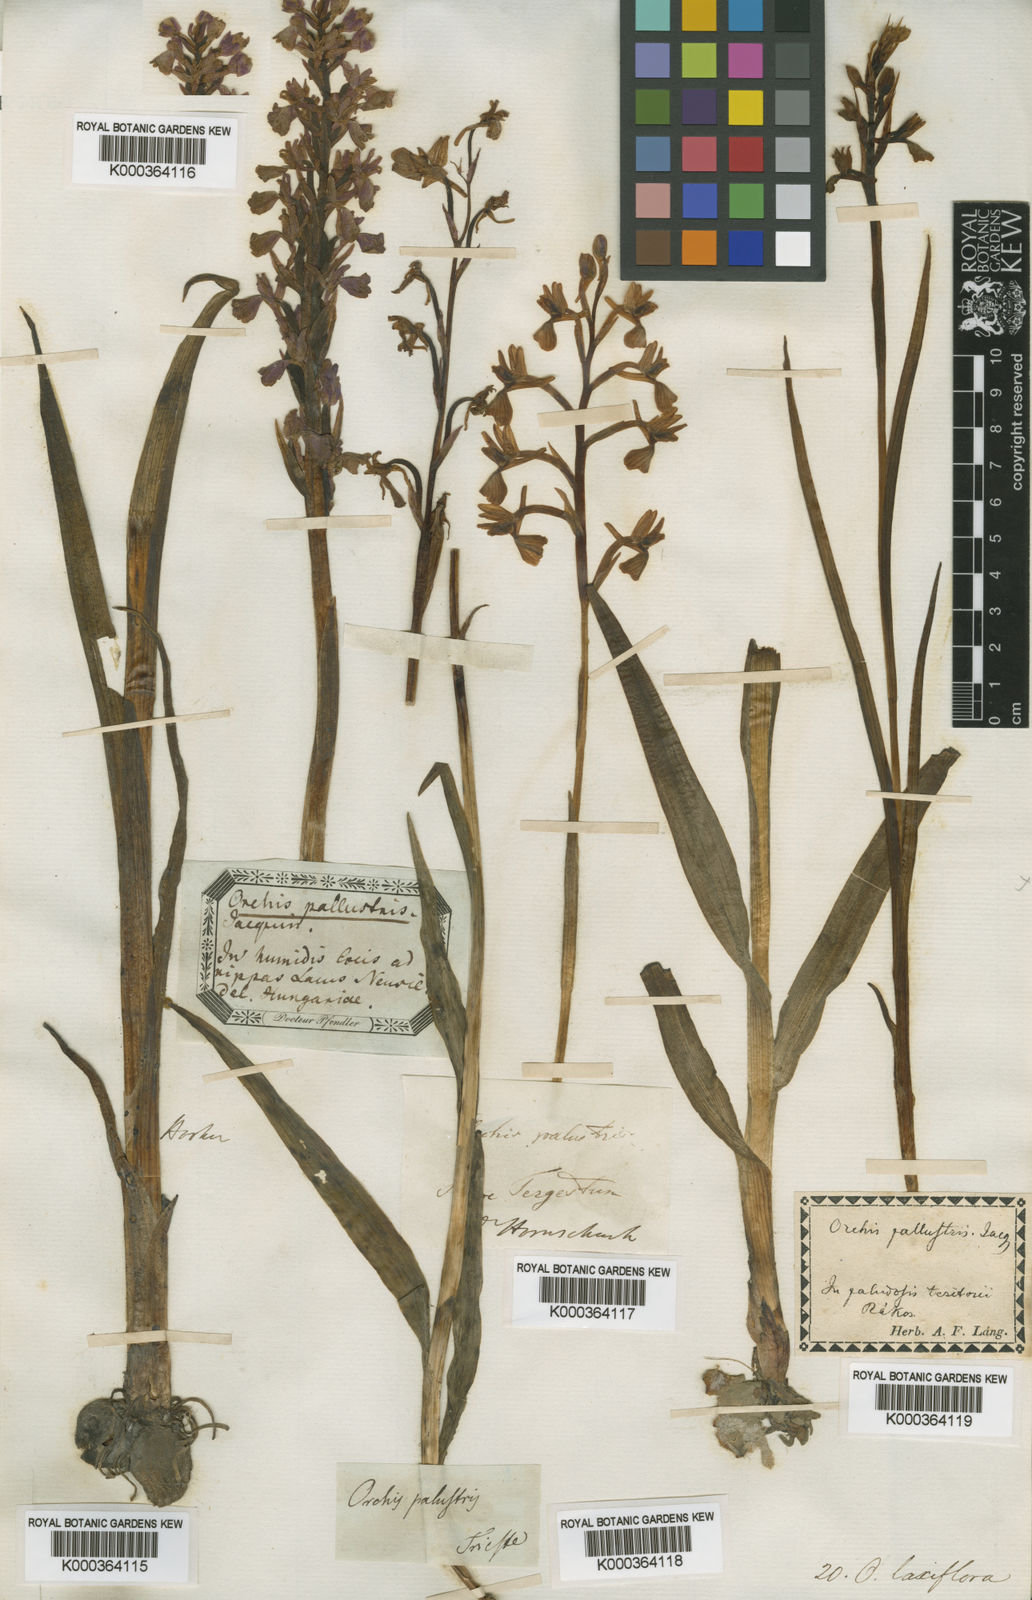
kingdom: Plantae
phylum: Tracheophyta
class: Liliopsida
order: Asparagales
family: Orchidaceae
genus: Anacamptis
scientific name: Anacamptis laxiflora
